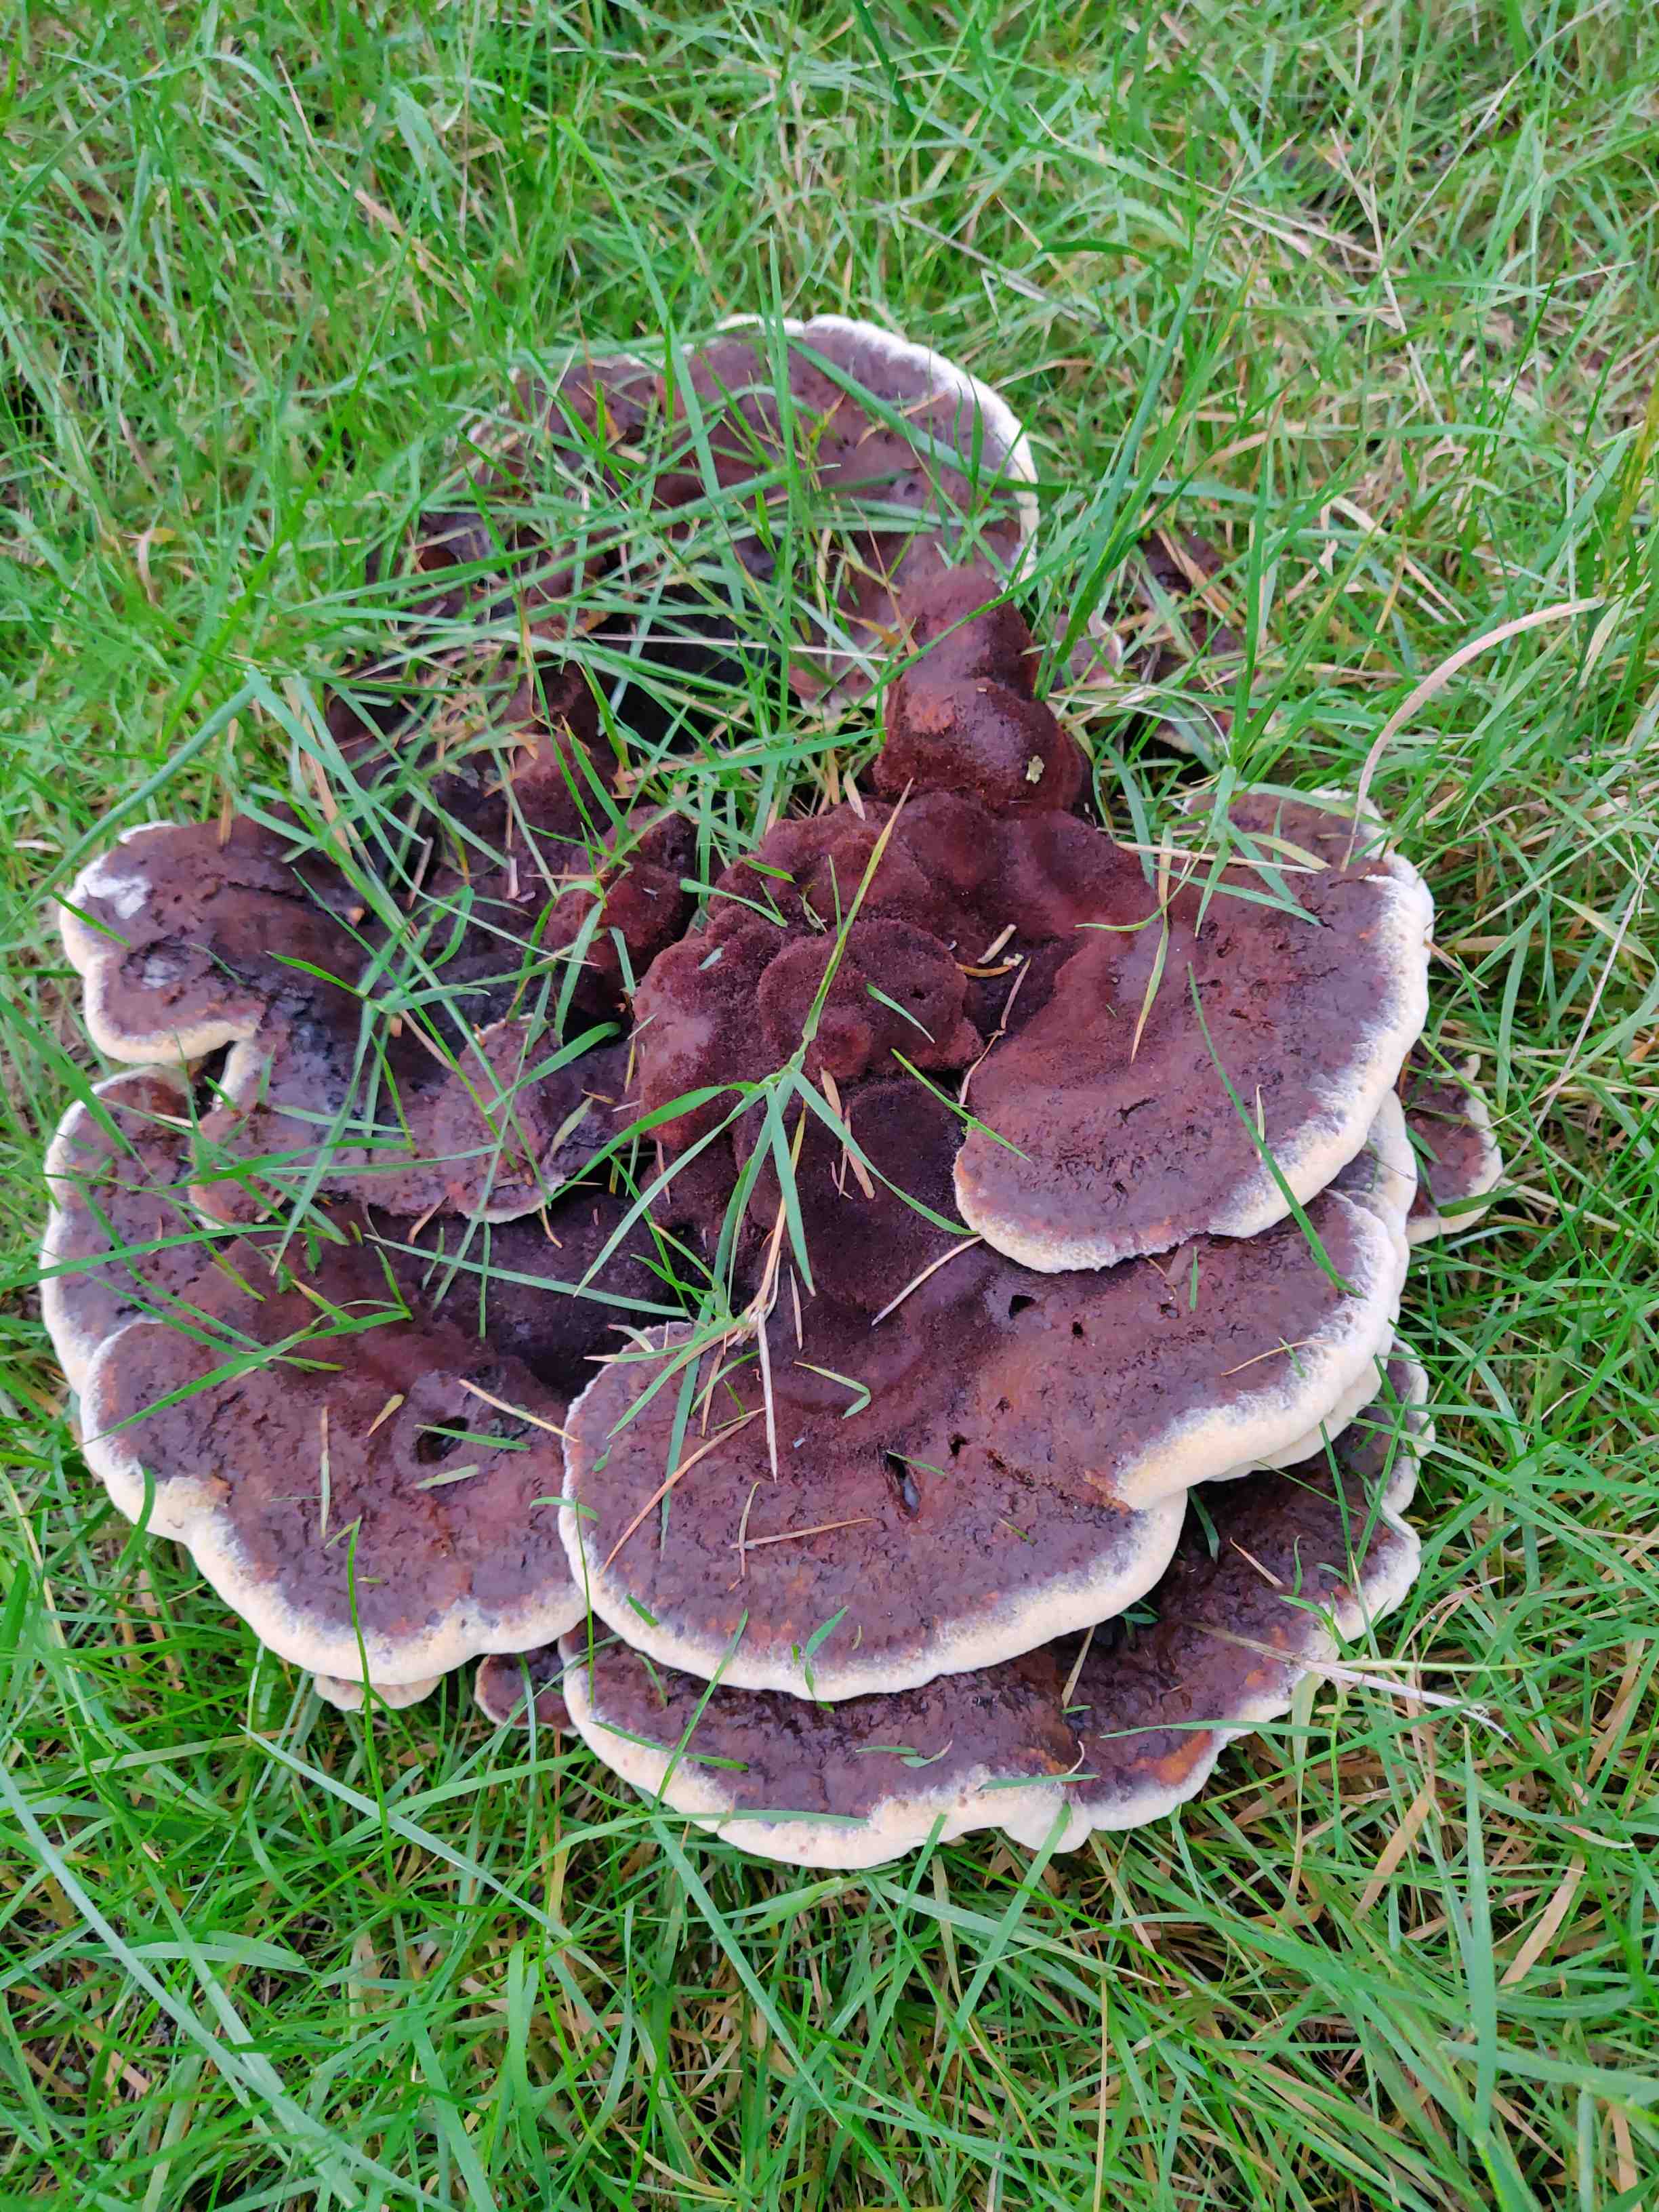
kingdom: Fungi
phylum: Basidiomycota
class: Agaricomycetes
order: Polyporales
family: Laetiporaceae
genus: Phaeolus
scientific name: Phaeolus schweinitzii
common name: brunporesvamp
